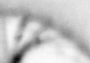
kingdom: Animalia
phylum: Annelida
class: Polychaeta
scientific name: Polychaeta
